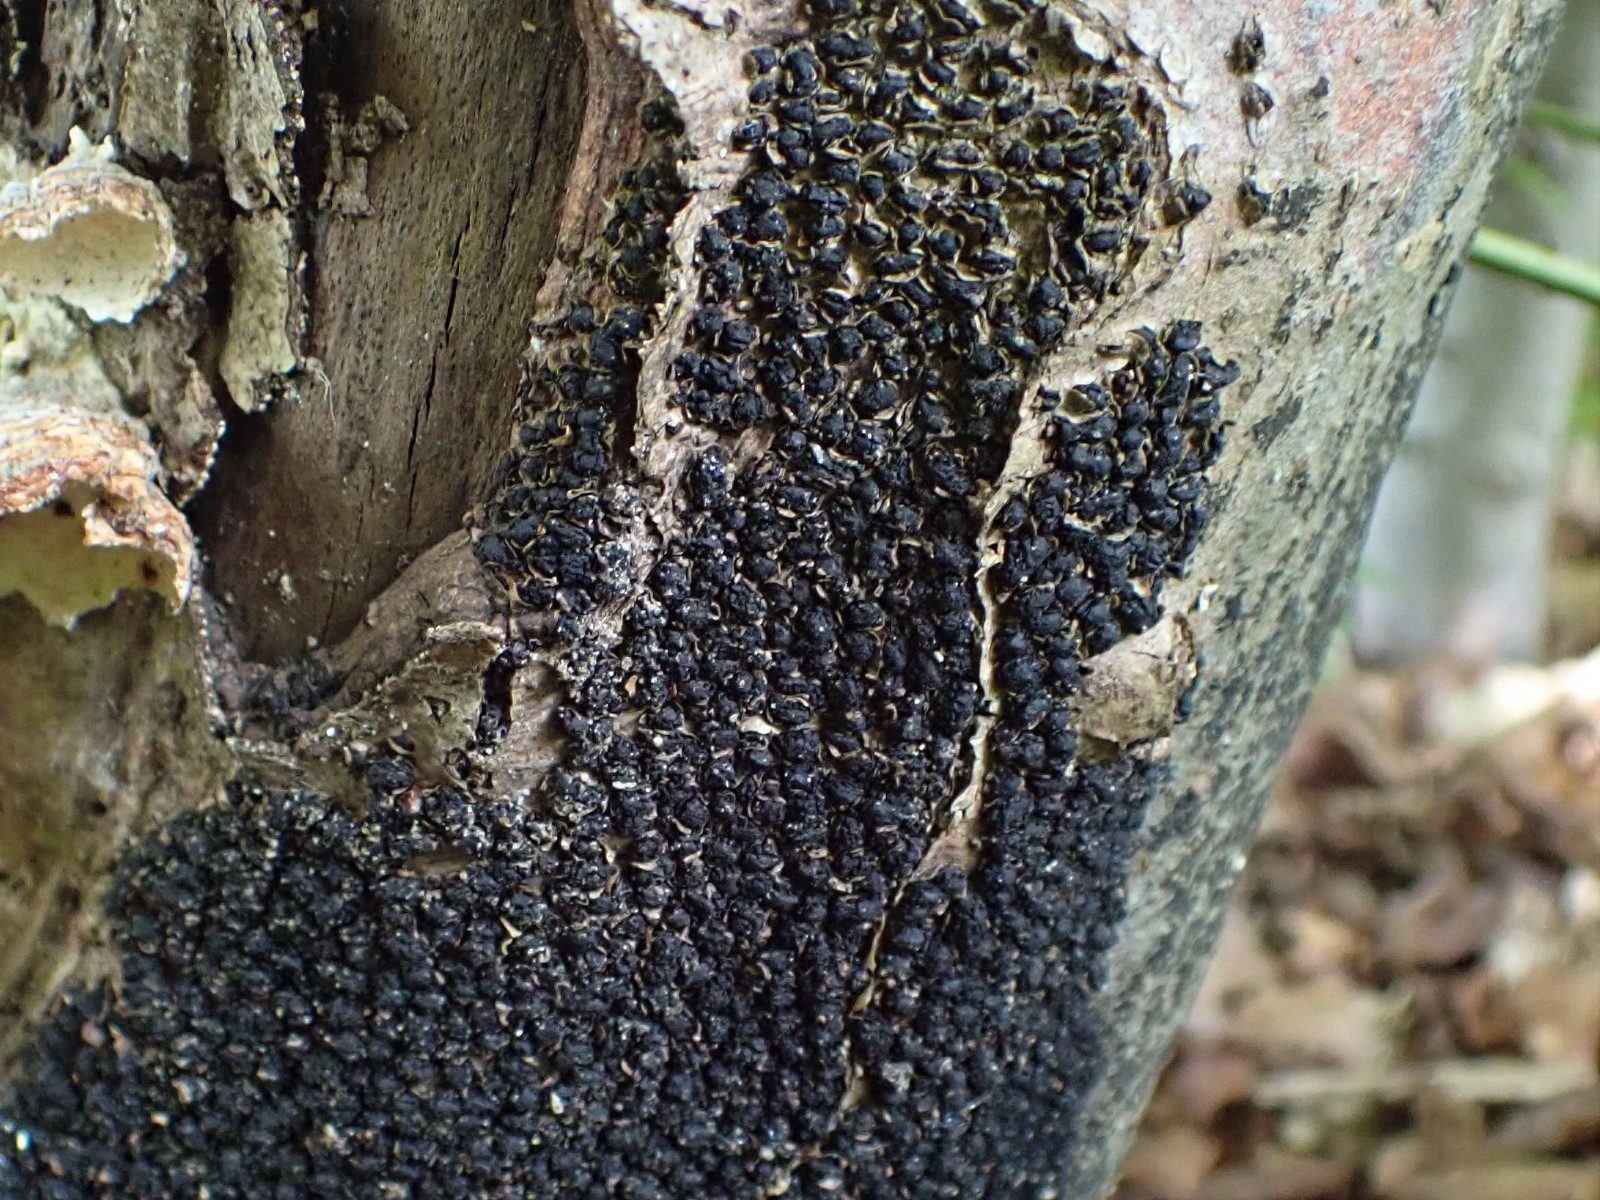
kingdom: Fungi
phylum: Ascomycota
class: Sordariomycetes
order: Xylariales
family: Melogrammataceae
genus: Melogramma
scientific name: Melogramma spiniferum
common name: bøgefod-kulhals
